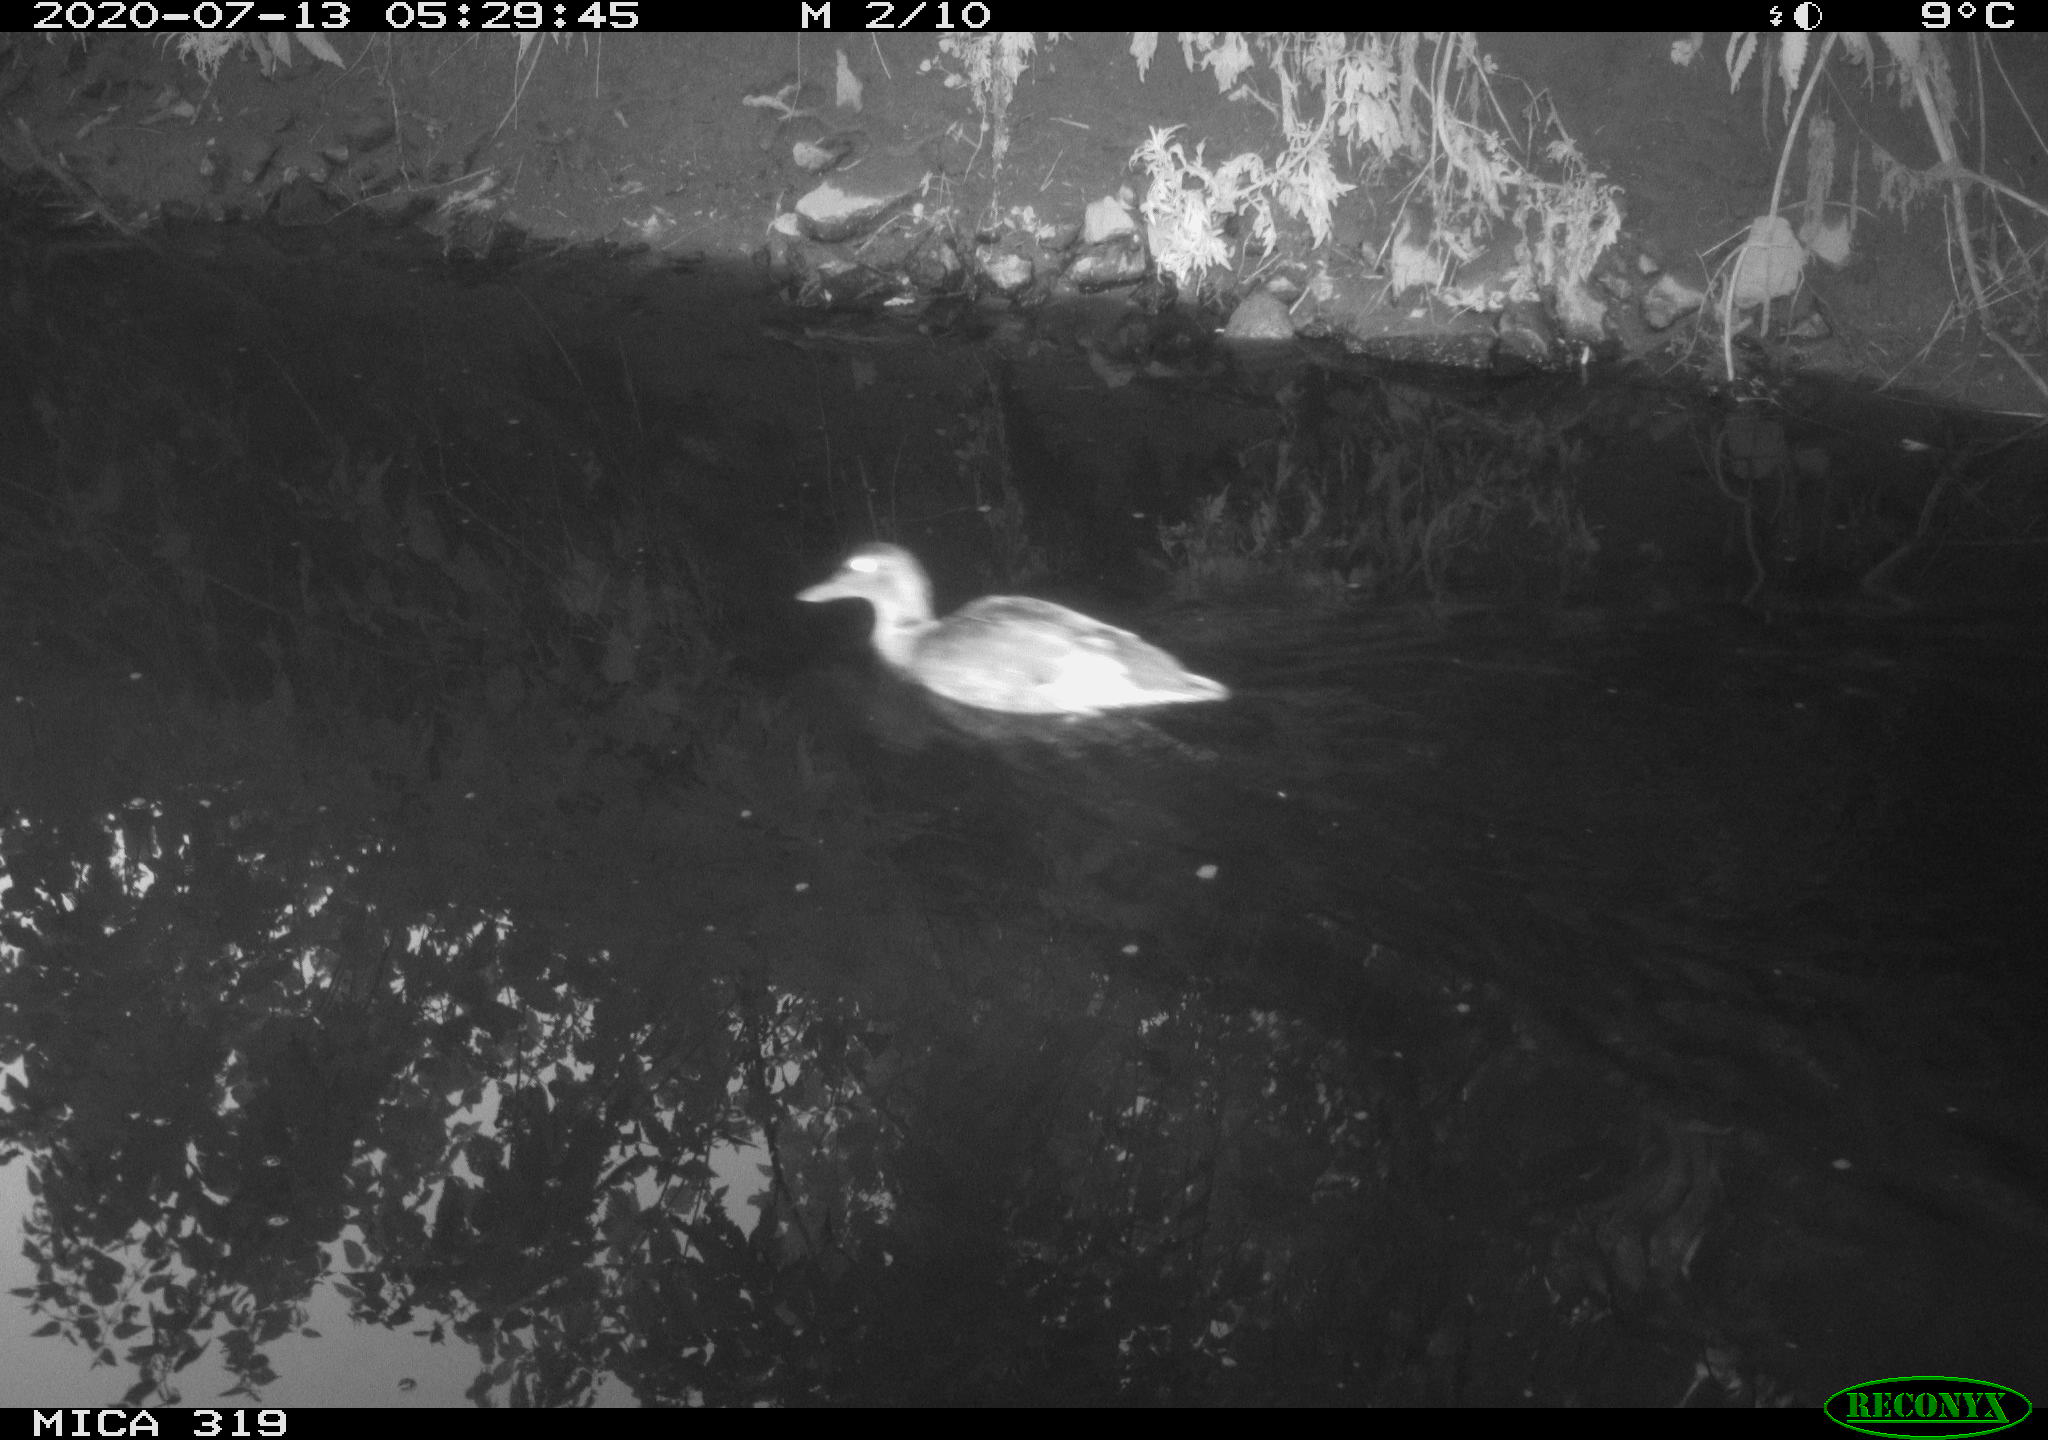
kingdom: Animalia
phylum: Chordata
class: Aves
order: Anseriformes
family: Anatidae
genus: Anas
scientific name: Anas platyrhynchos
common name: Mallard
